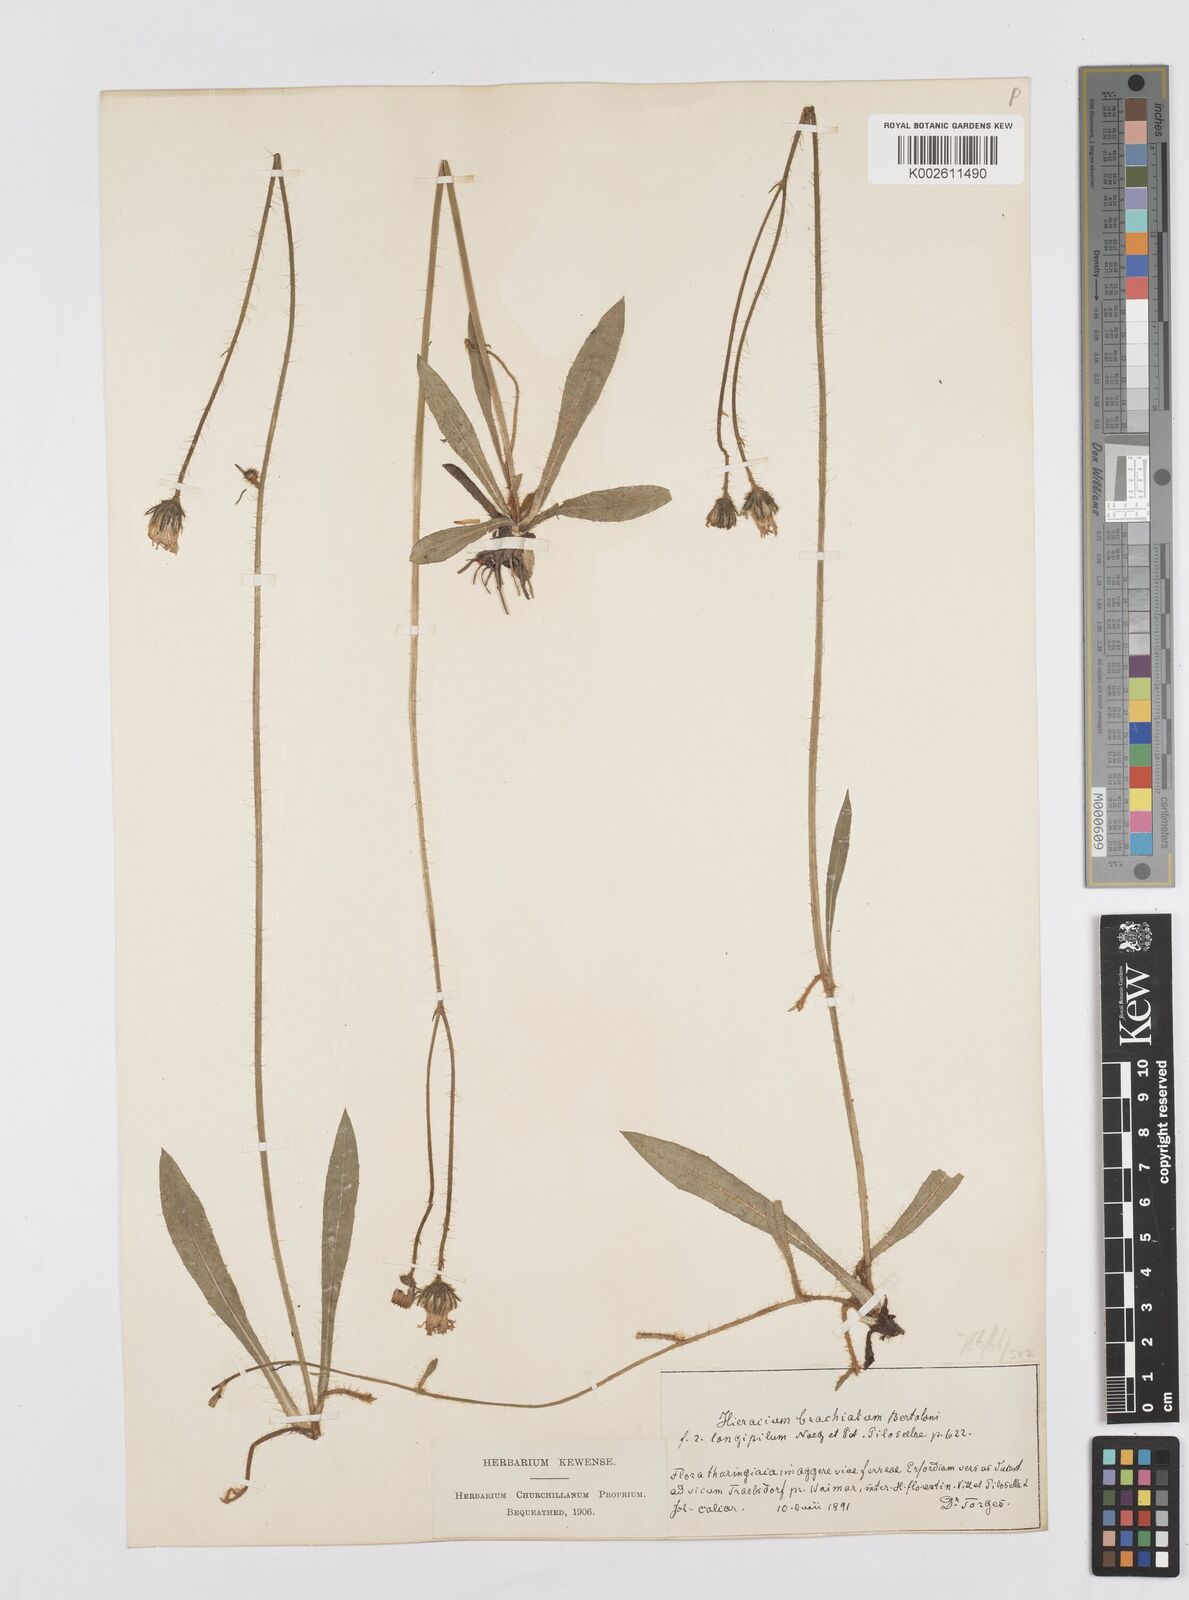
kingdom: Plantae
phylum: Tracheophyta
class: Magnoliopsida
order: Asterales
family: Asteraceae
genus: Pilosella
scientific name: Pilosella acutifolia
